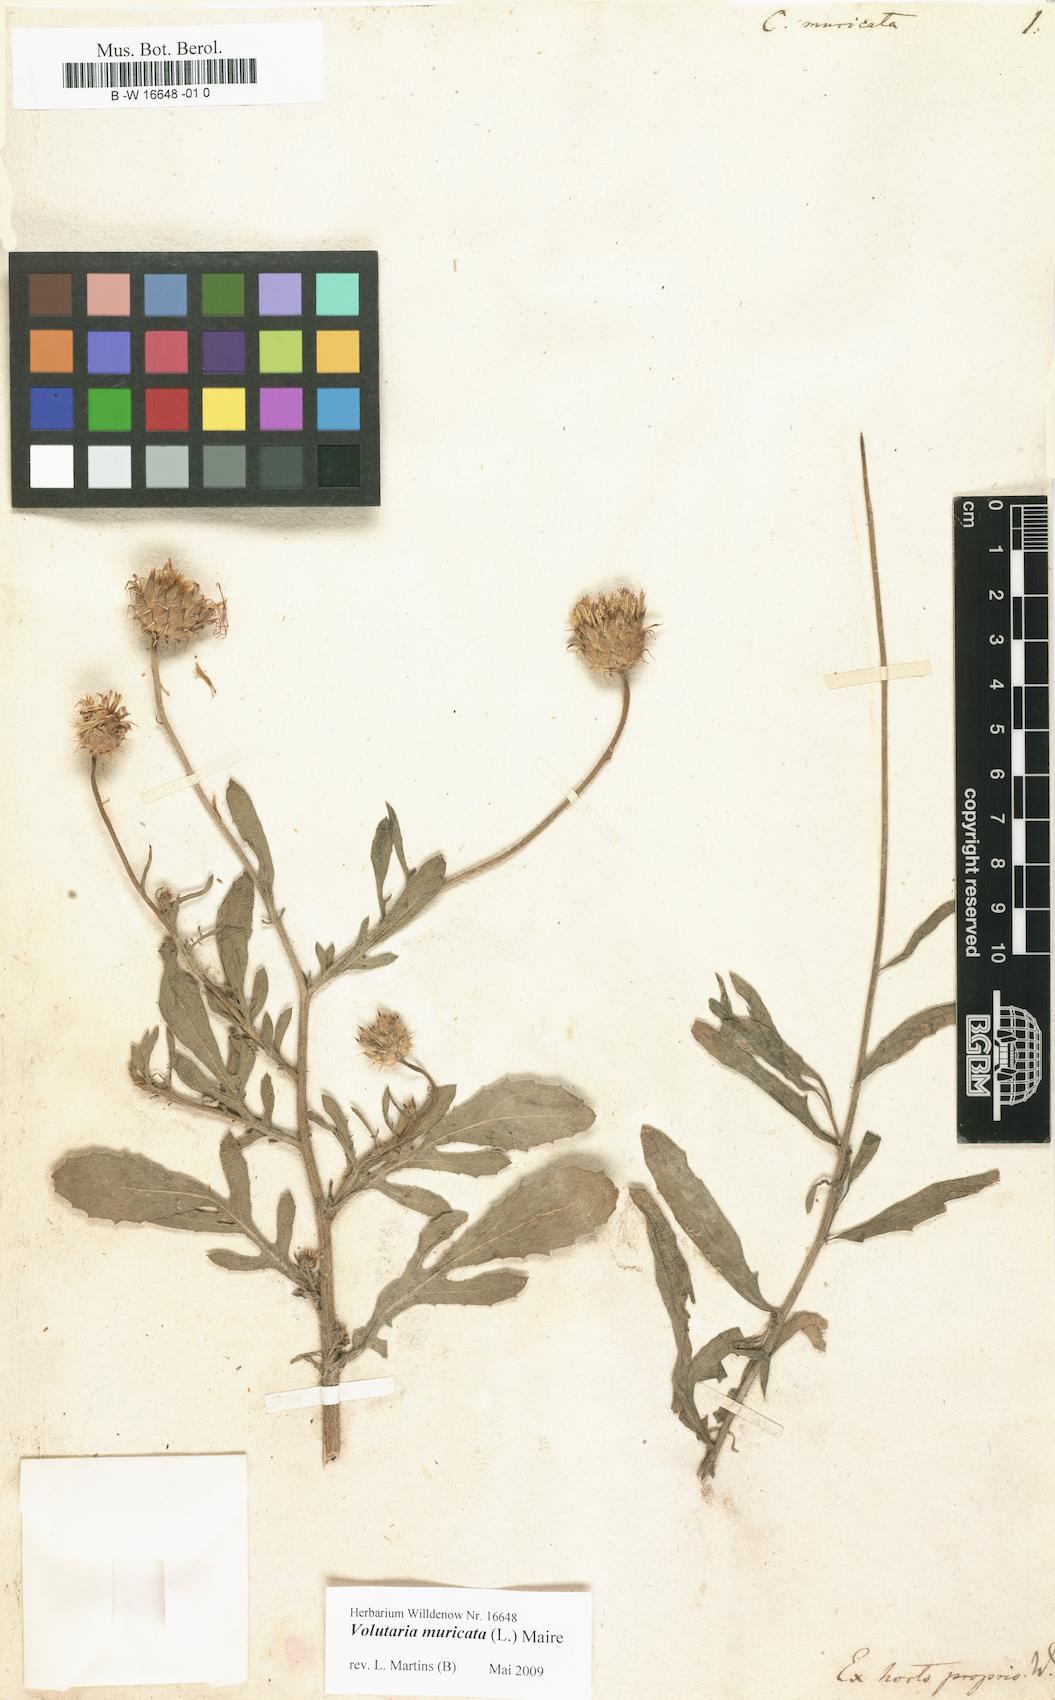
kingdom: Plantae
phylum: Tracheophyta
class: Magnoliopsida
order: Asterales
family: Asteraceae
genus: Volutaria
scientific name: Volutaria
